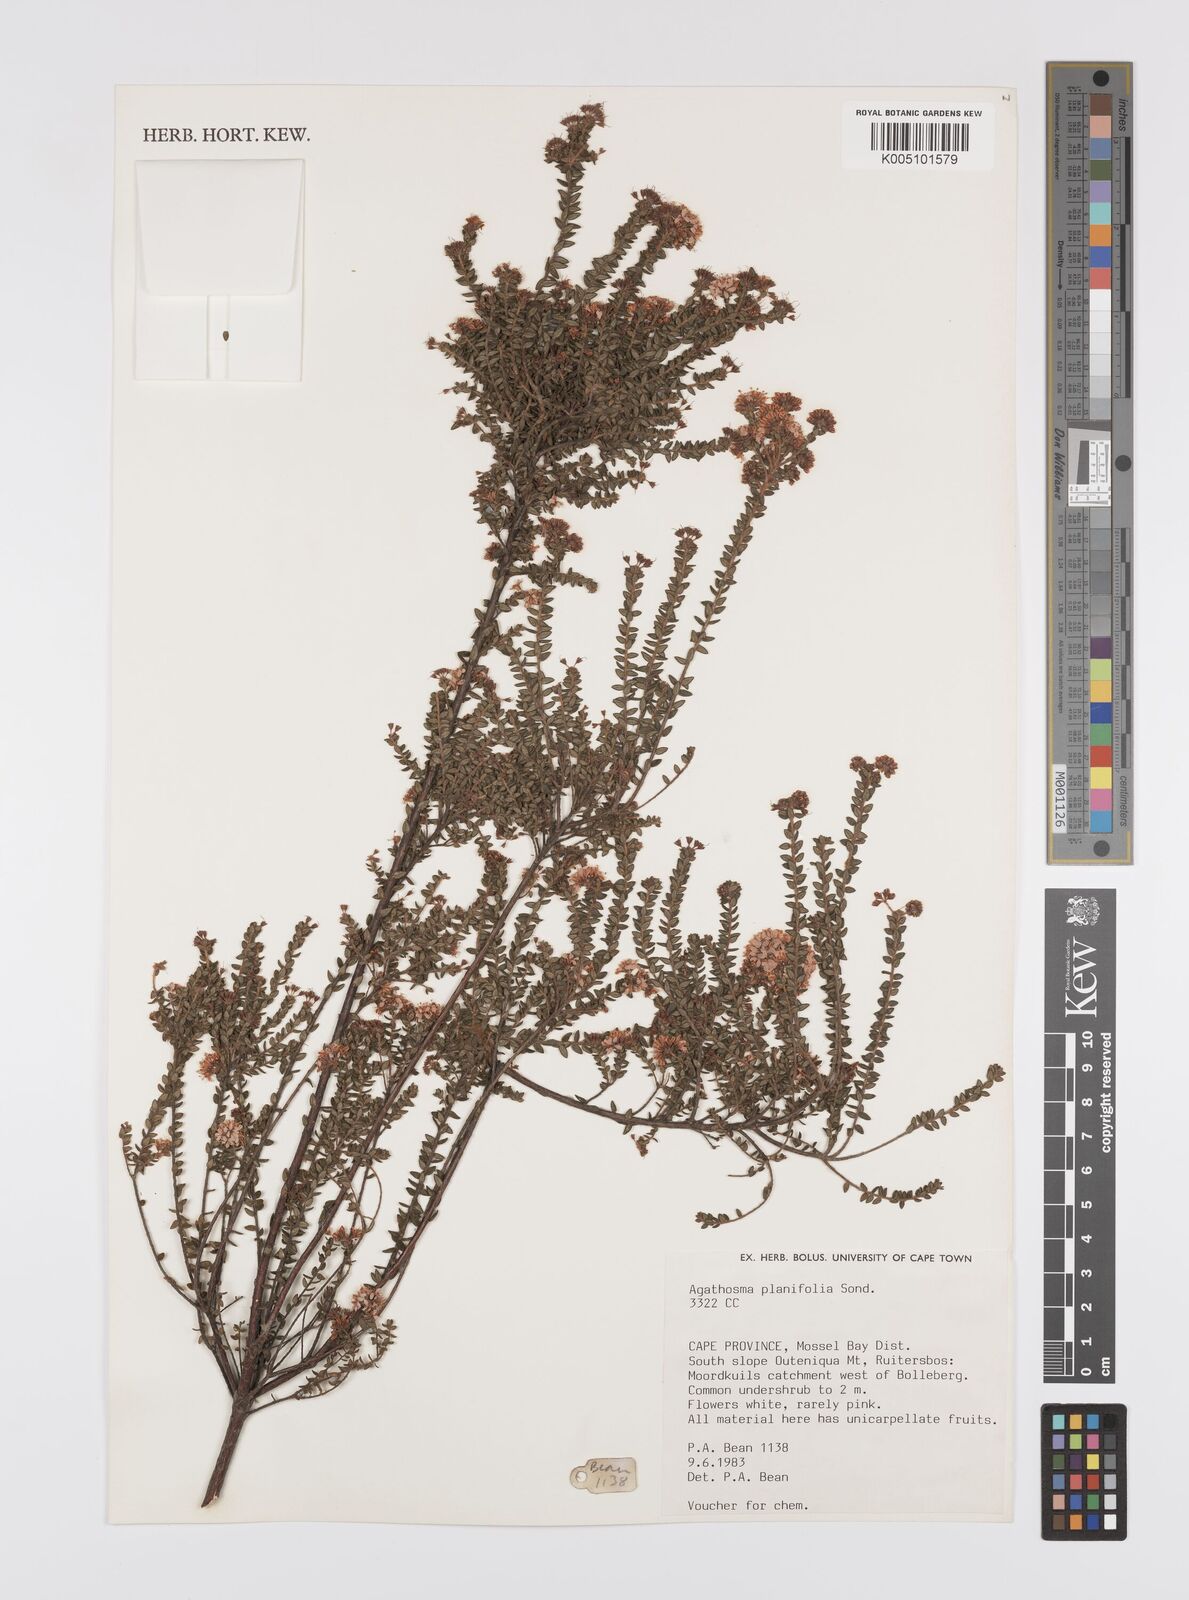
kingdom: Plantae
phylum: Tracheophyta
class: Magnoliopsida
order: Sapindales
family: Rutaceae
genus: Agathosma
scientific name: Agathosma planifolia
